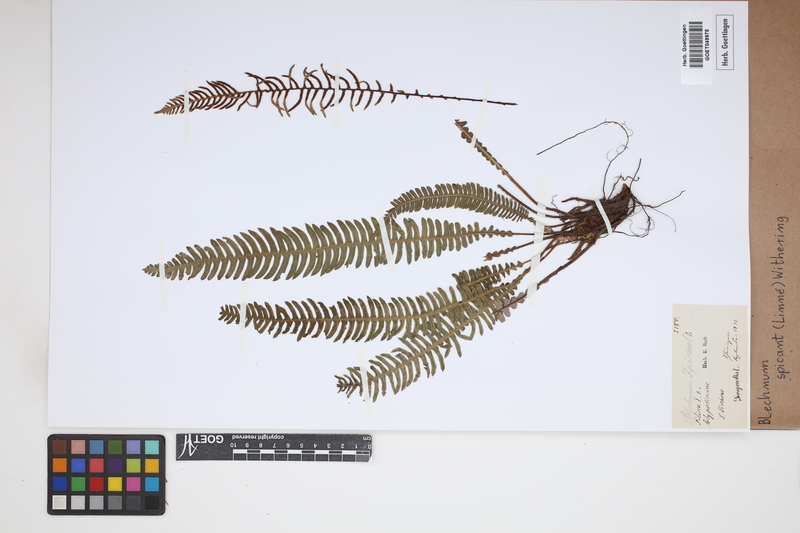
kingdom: Plantae
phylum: Tracheophyta
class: Polypodiopsida
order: Polypodiales
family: Blechnaceae
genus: Struthiopteris
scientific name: Struthiopteris spicant
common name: Deer fern
